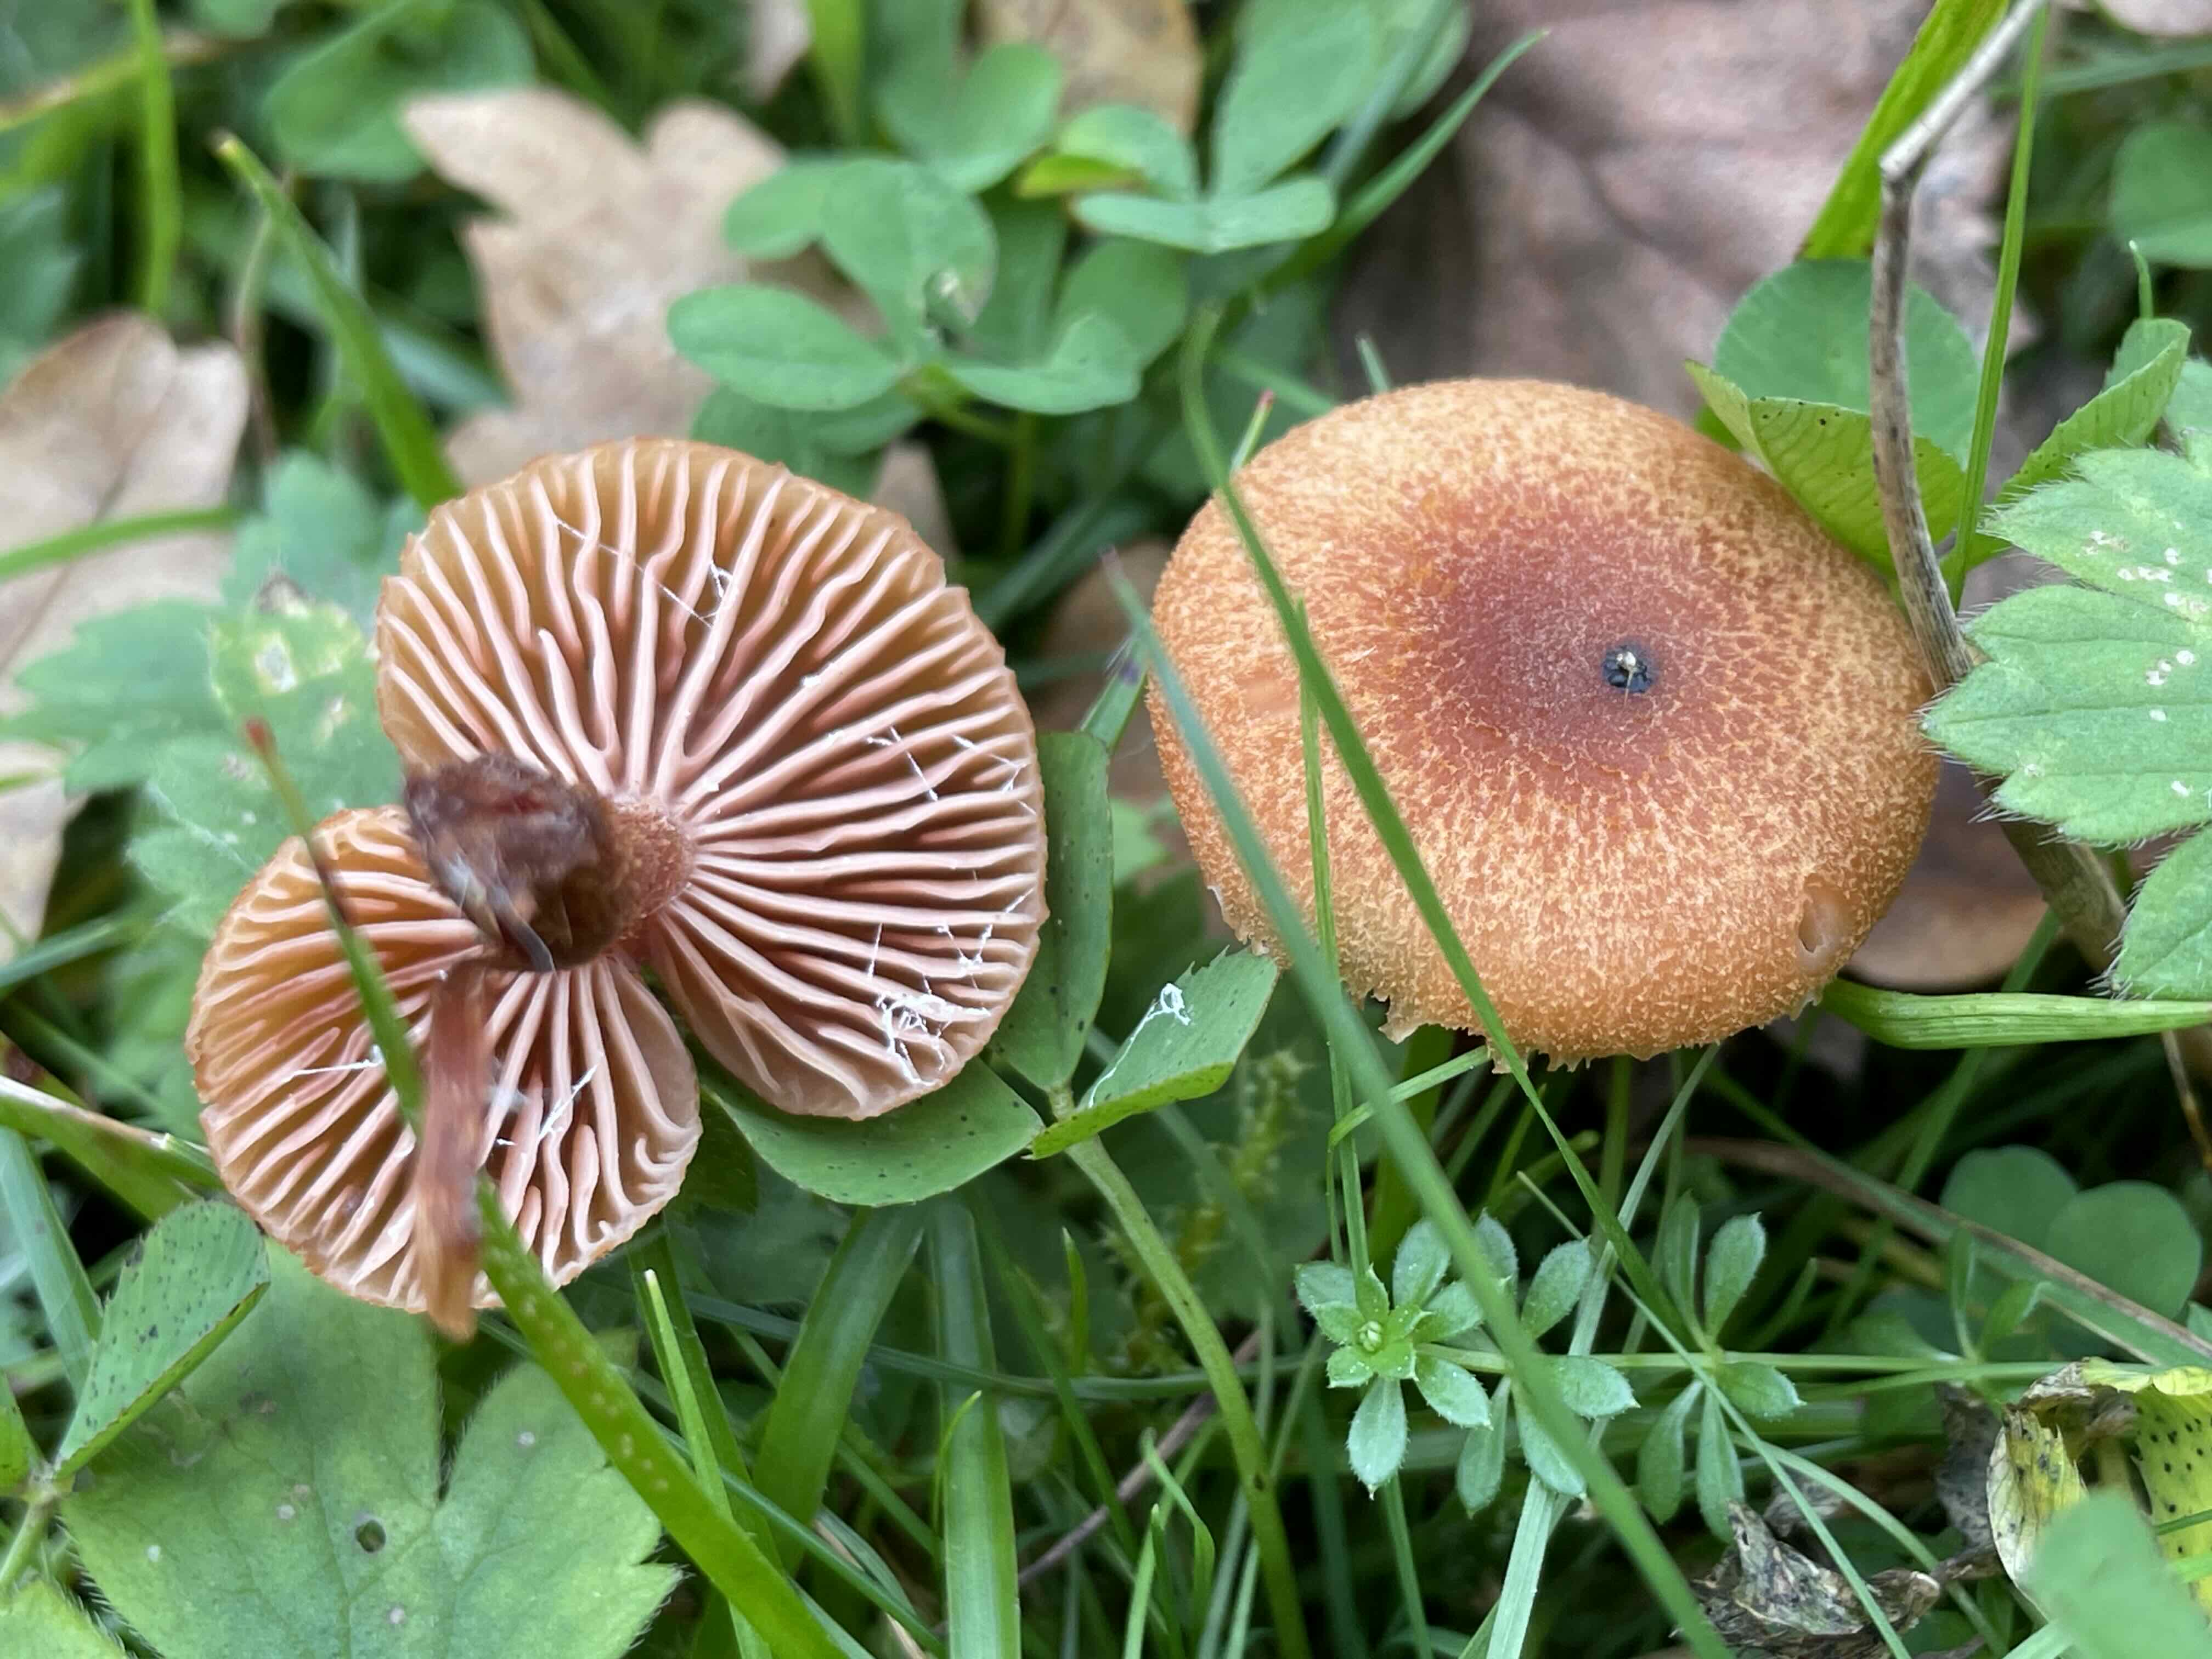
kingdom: Fungi
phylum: Basidiomycota
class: Agaricomycetes
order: Agaricales
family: Hydnangiaceae
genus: Laccaria
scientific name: Laccaria
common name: ametysthat
